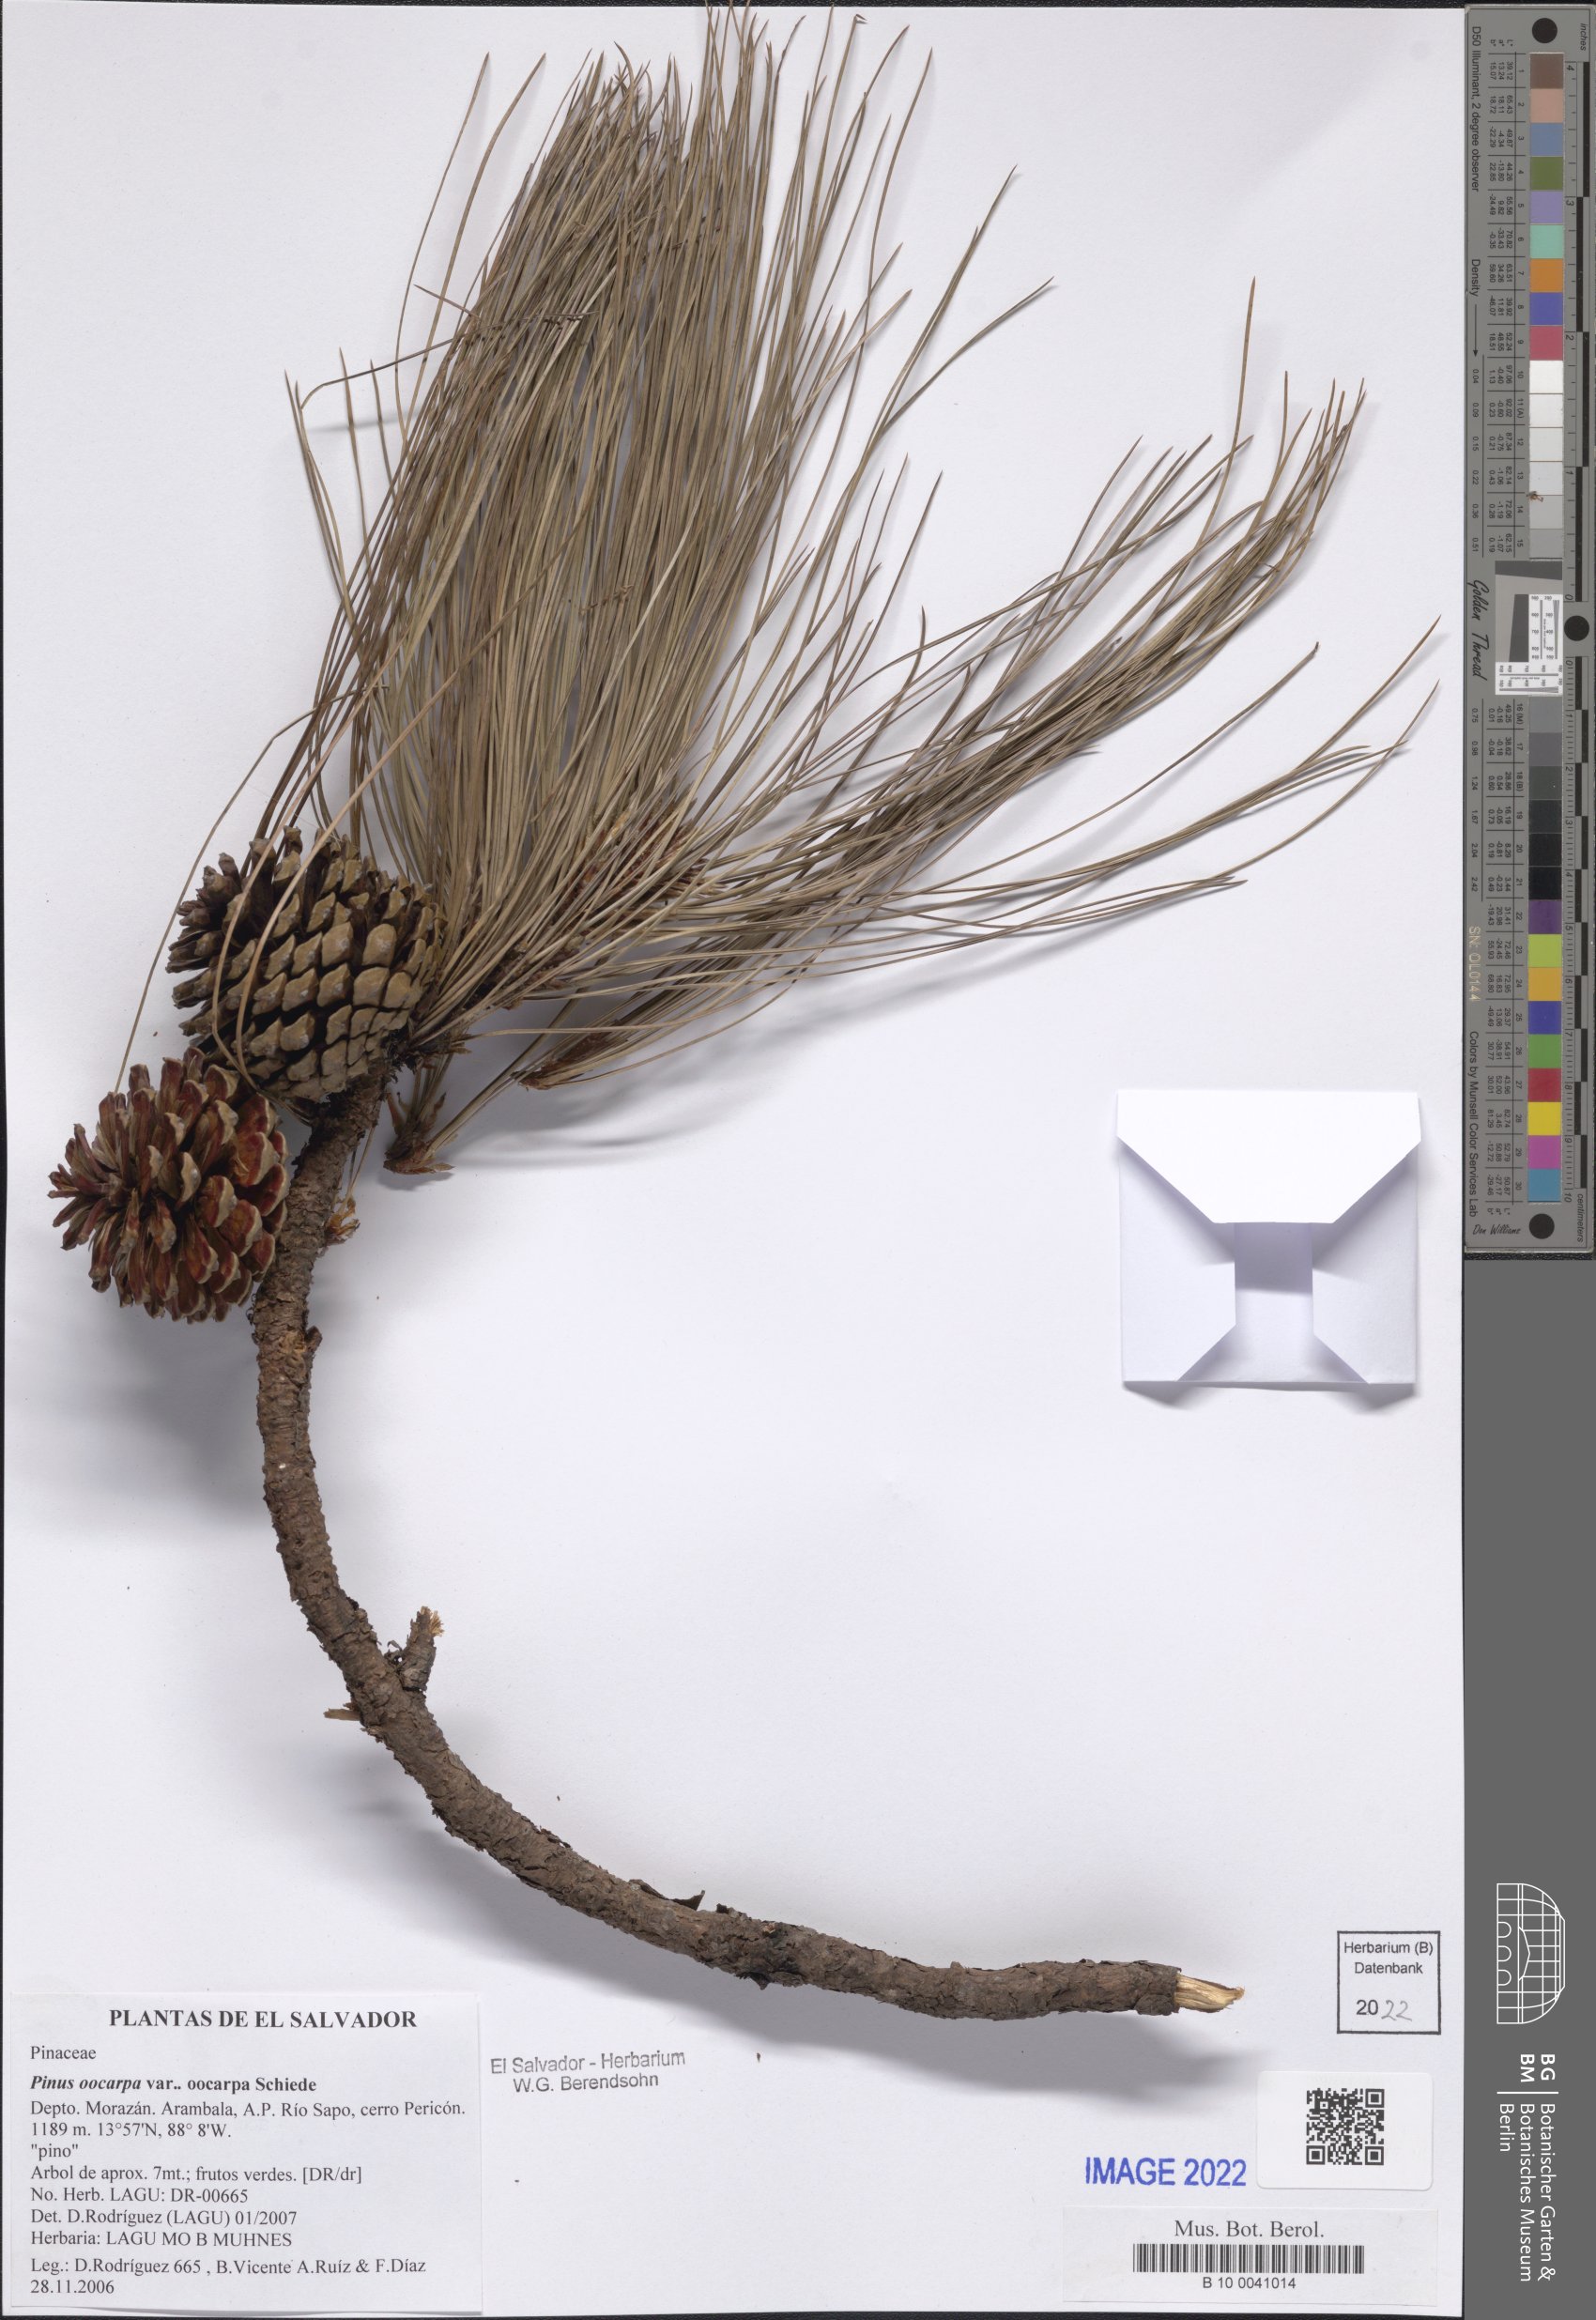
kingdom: Plantae
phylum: Tracheophyta
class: Pinopsida
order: Pinales
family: Pinaceae
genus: Pinus
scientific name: Pinus oocarpa
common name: Egg-cone pine
